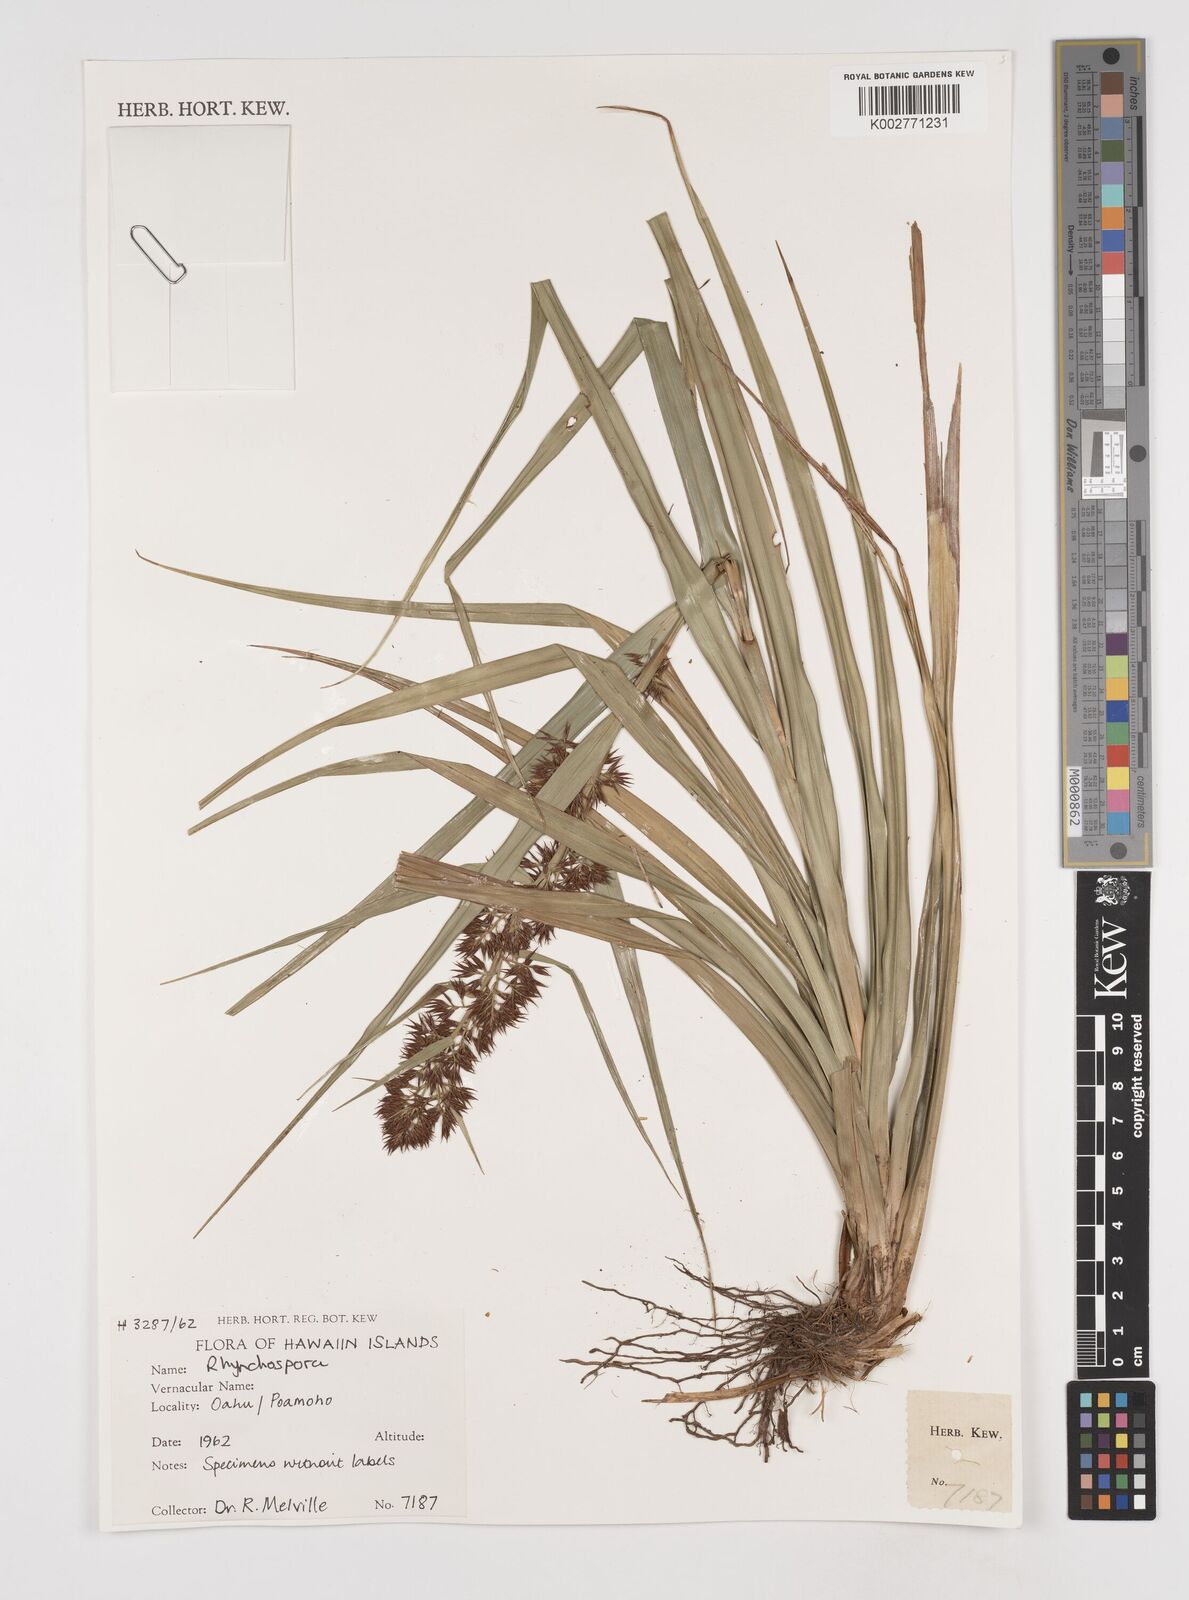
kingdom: Plantae
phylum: Tracheophyta
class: Liliopsida
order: Poales
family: Cyperaceae
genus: Rhynchospora
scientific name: Rhynchospora
